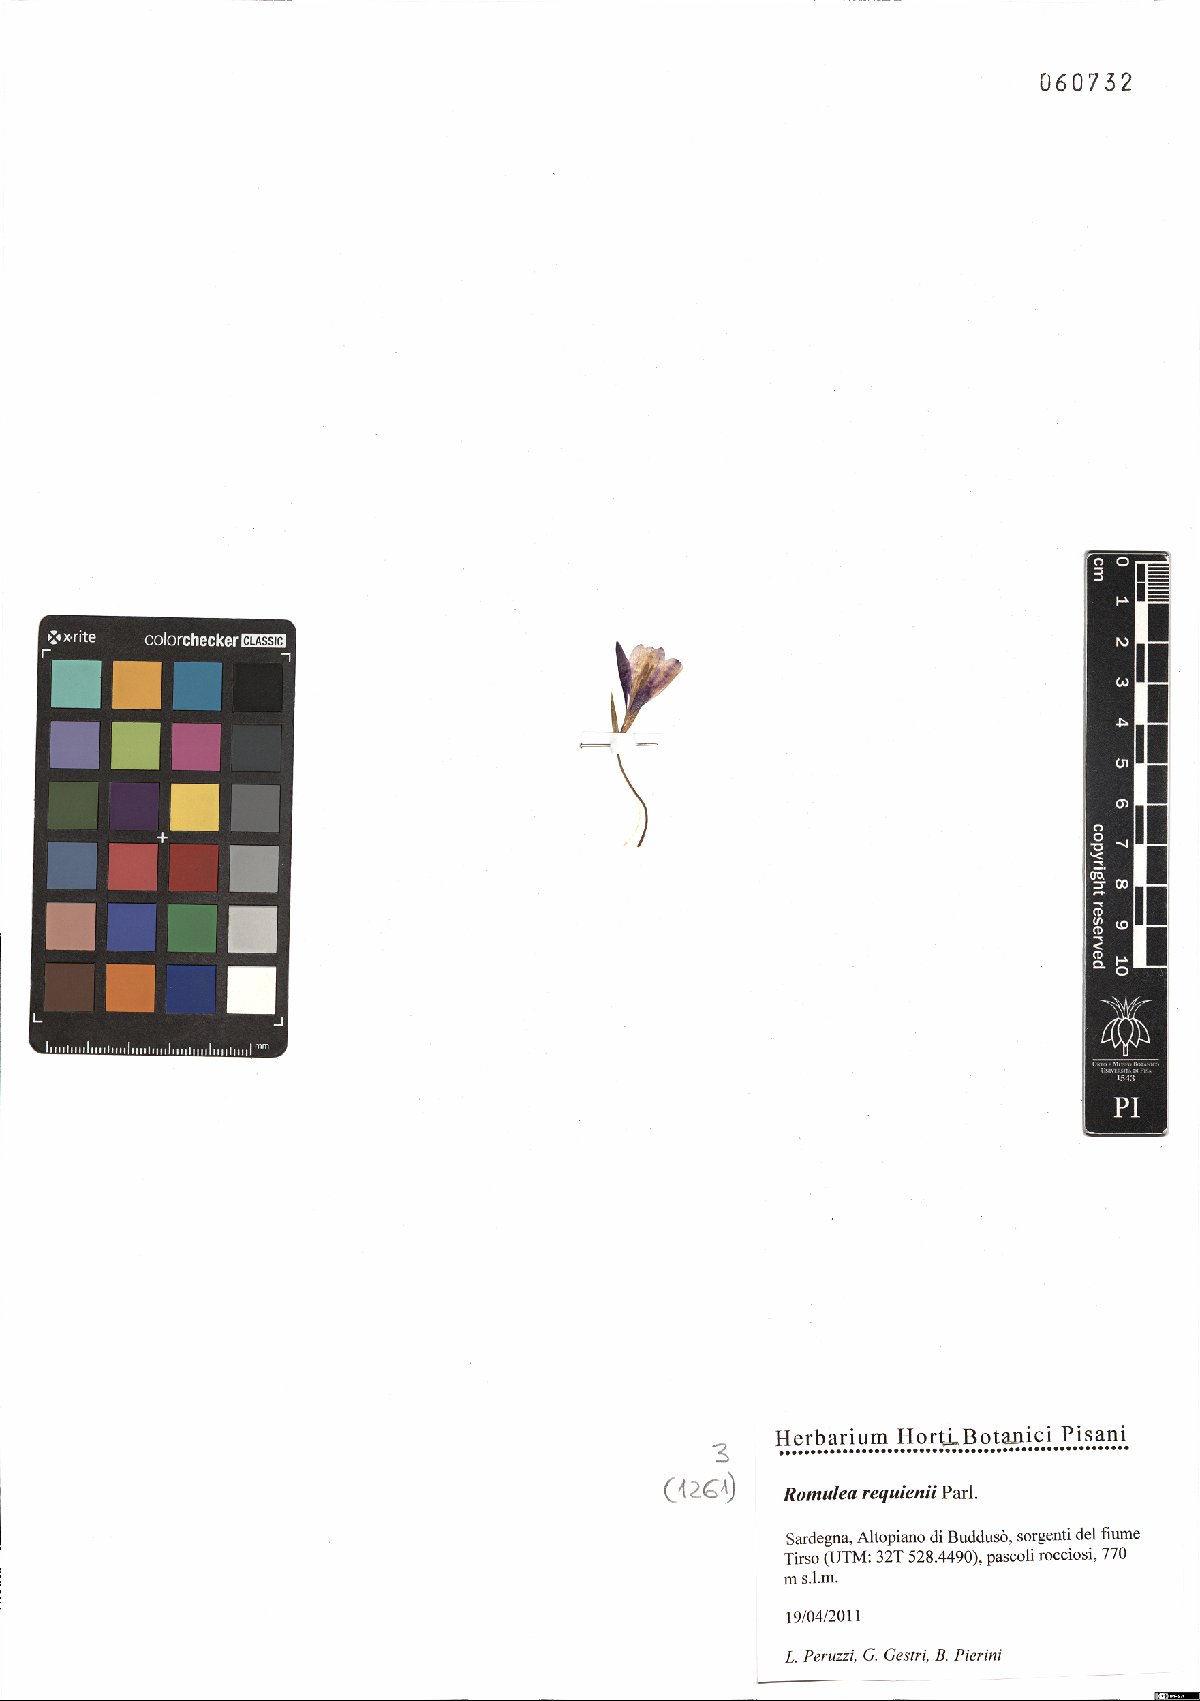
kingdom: Plantae
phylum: Tracheophyta
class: Liliopsida
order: Asparagales
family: Iridaceae
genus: Romulea
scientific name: Romulea requienii
